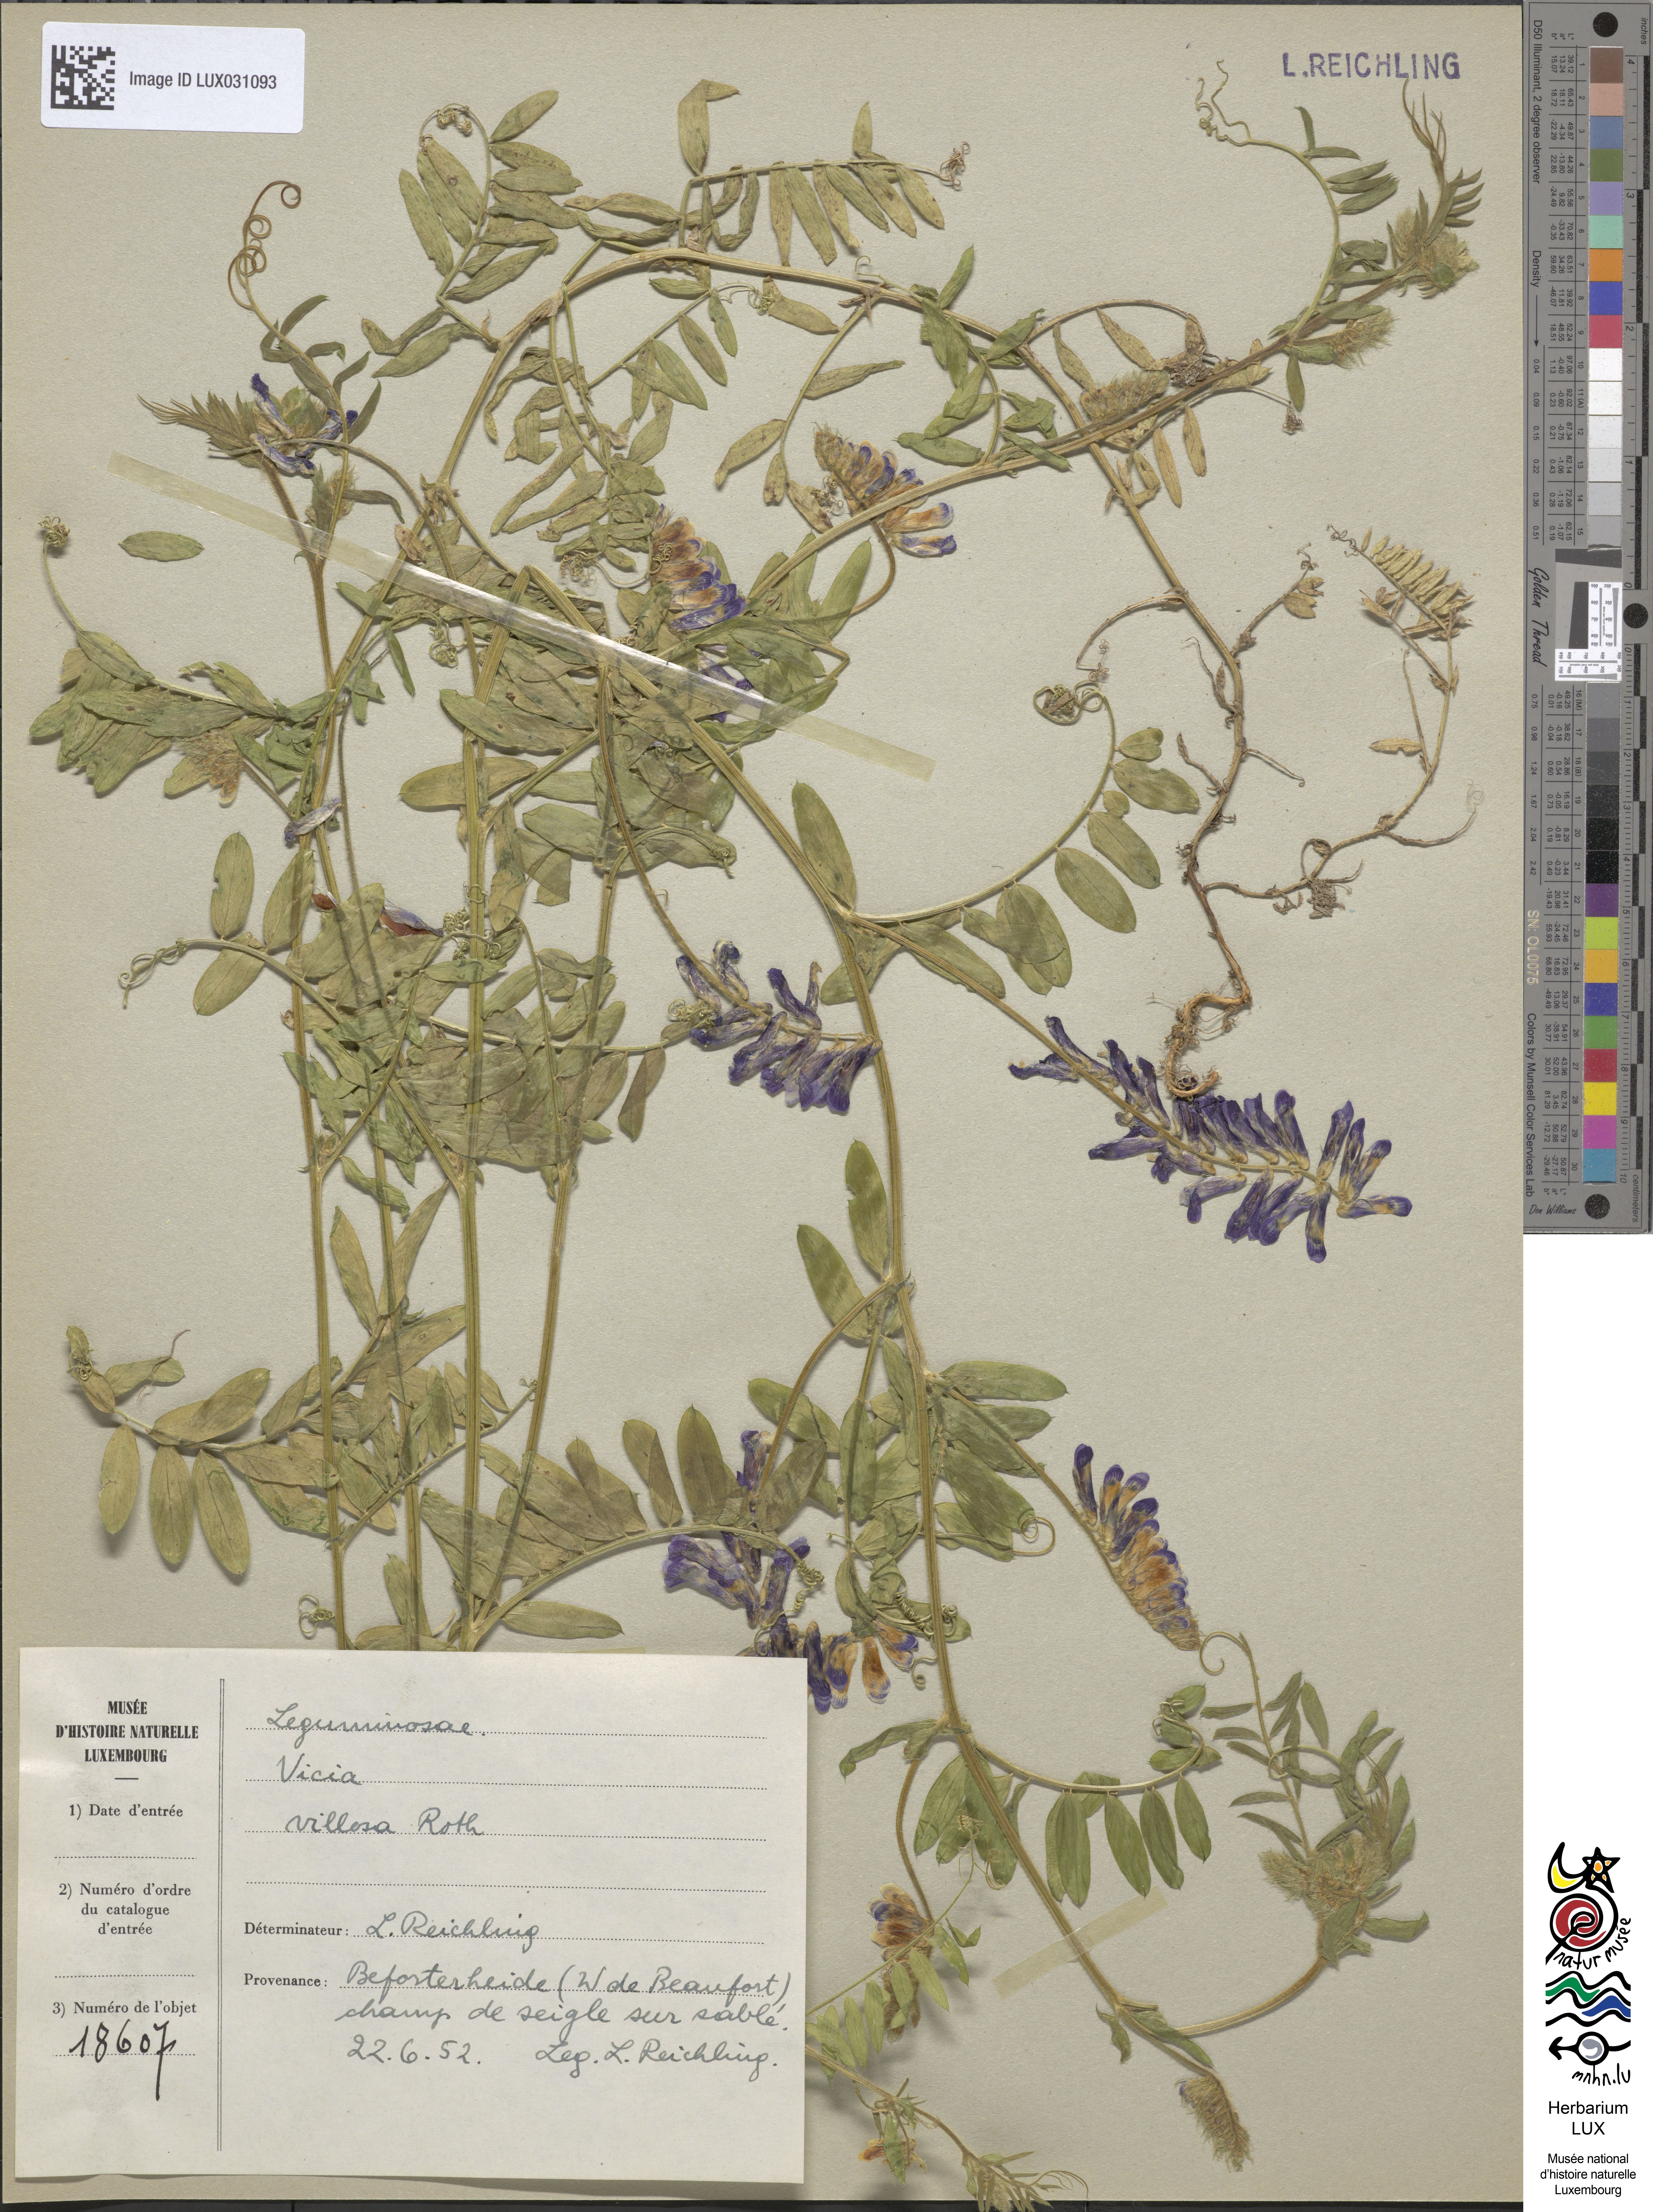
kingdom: Plantae
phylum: Tracheophyta
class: Magnoliopsida
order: Fabales
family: Fabaceae
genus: Vicia
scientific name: Vicia villosa
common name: Fodder vetch
